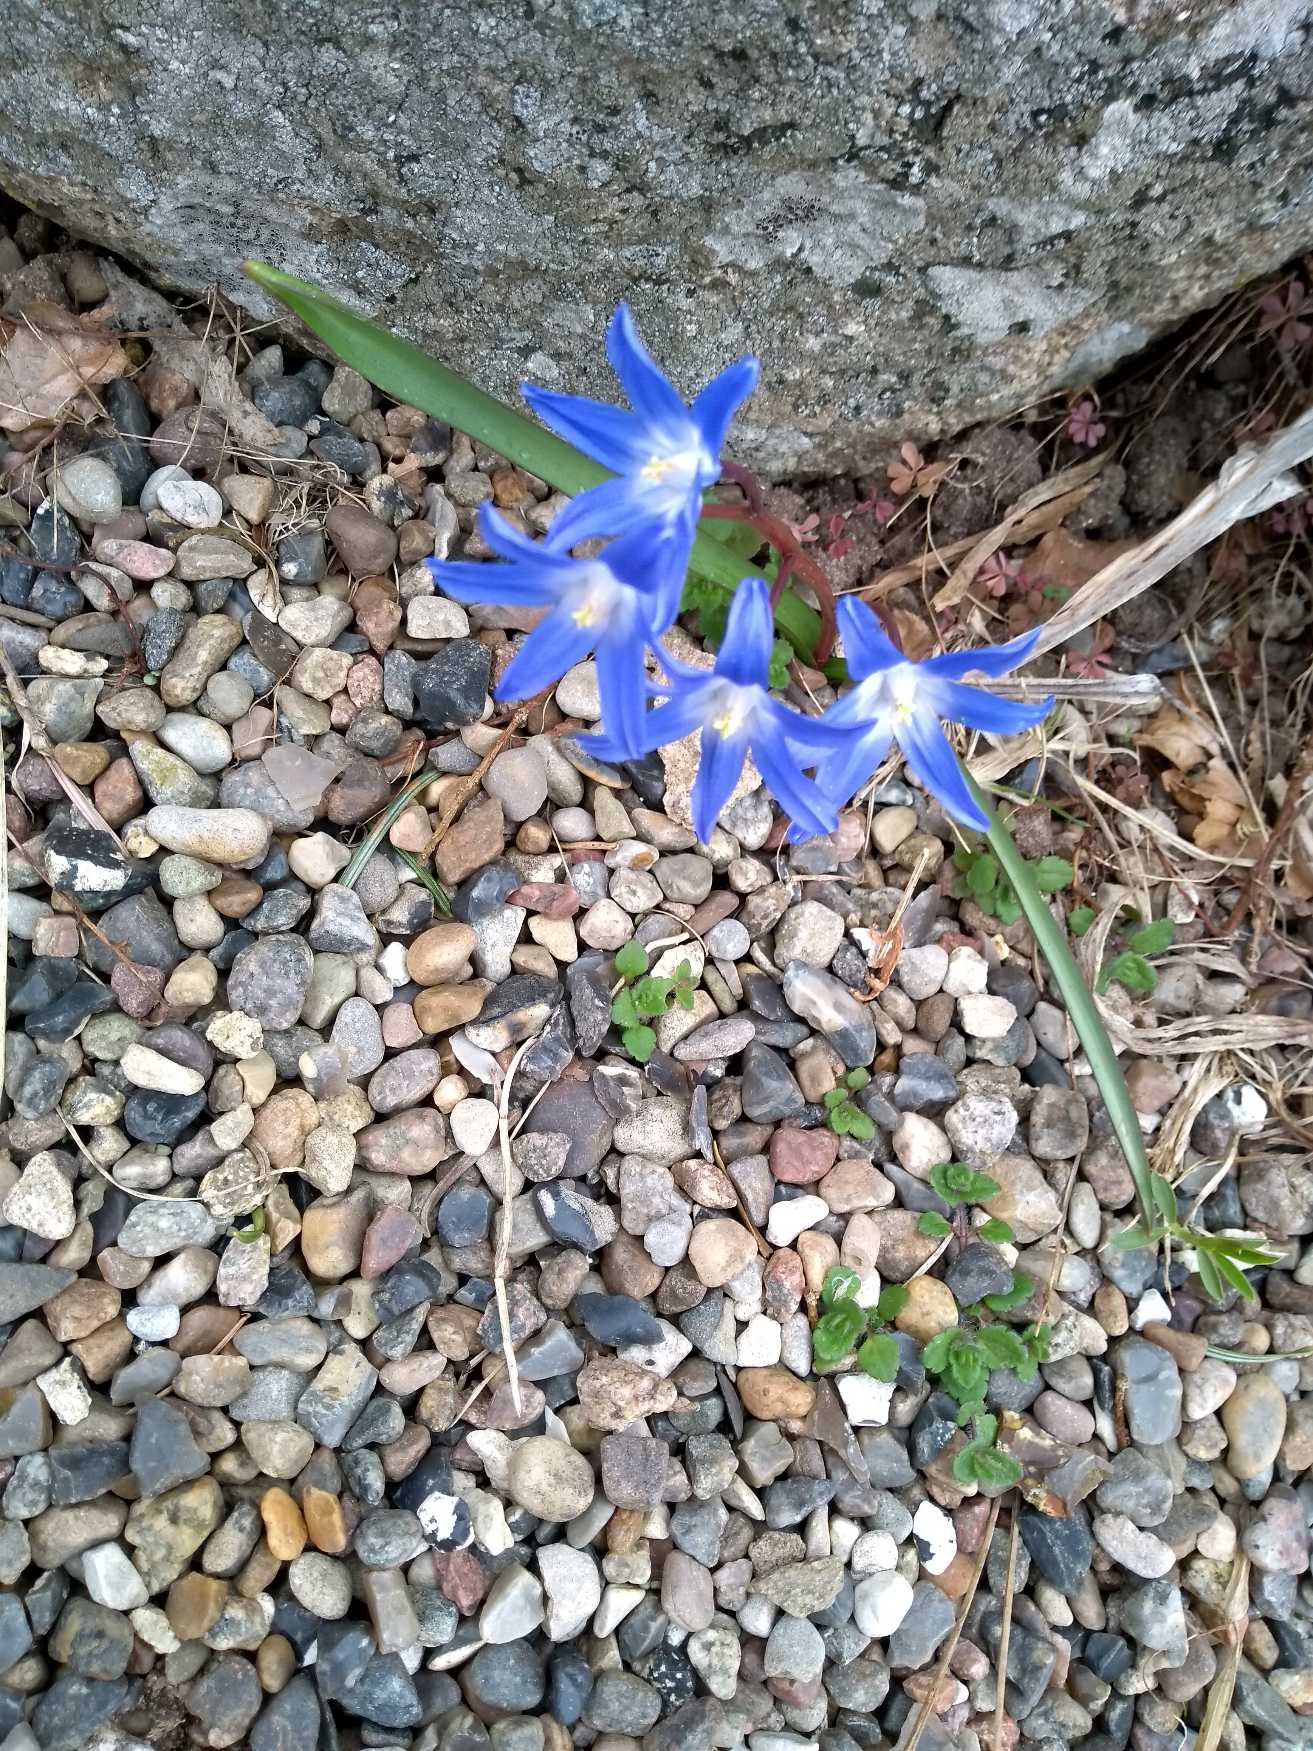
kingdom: Plantae
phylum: Tracheophyta
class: Liliopsida
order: Asparagales
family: Asparagaceae
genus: Scilla
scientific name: Scilla forbesii
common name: Almindelig snepryd
